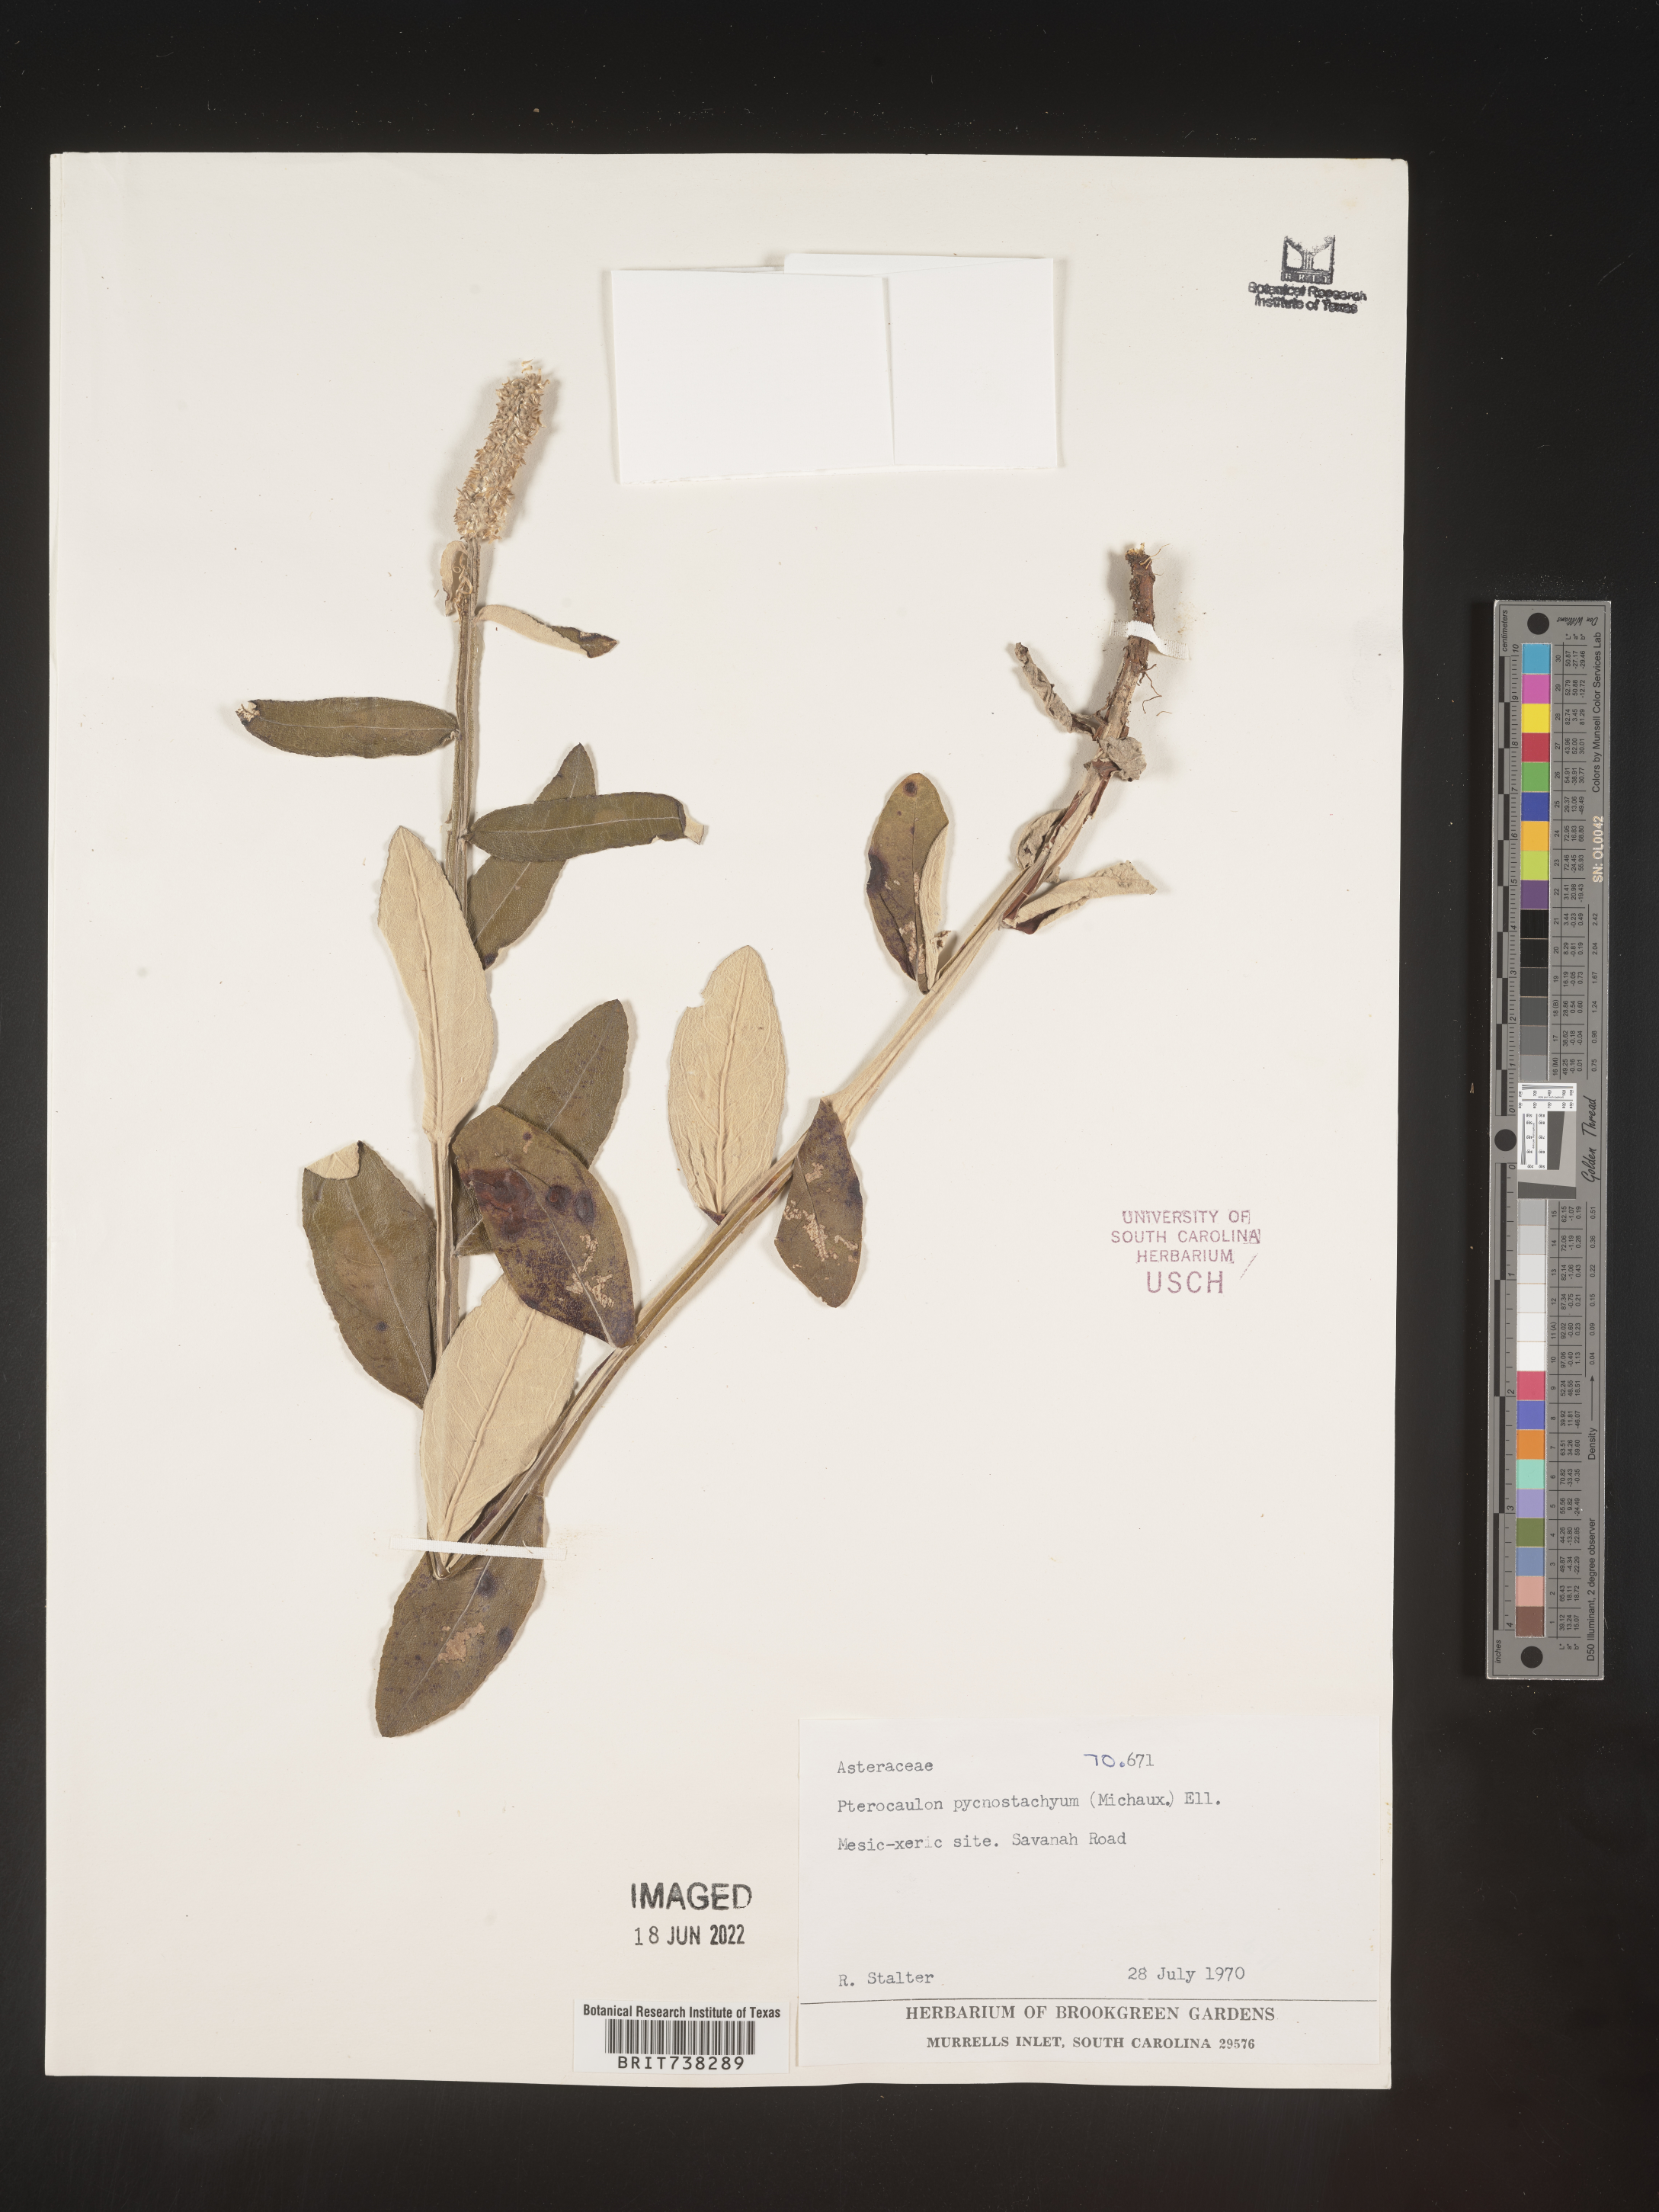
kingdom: Plantae
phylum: Tracheophyta
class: Magnoliopsida
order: Asterales
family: Asteraceae
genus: Pterocaulon
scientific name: Pterocaulon pycnostachyum
